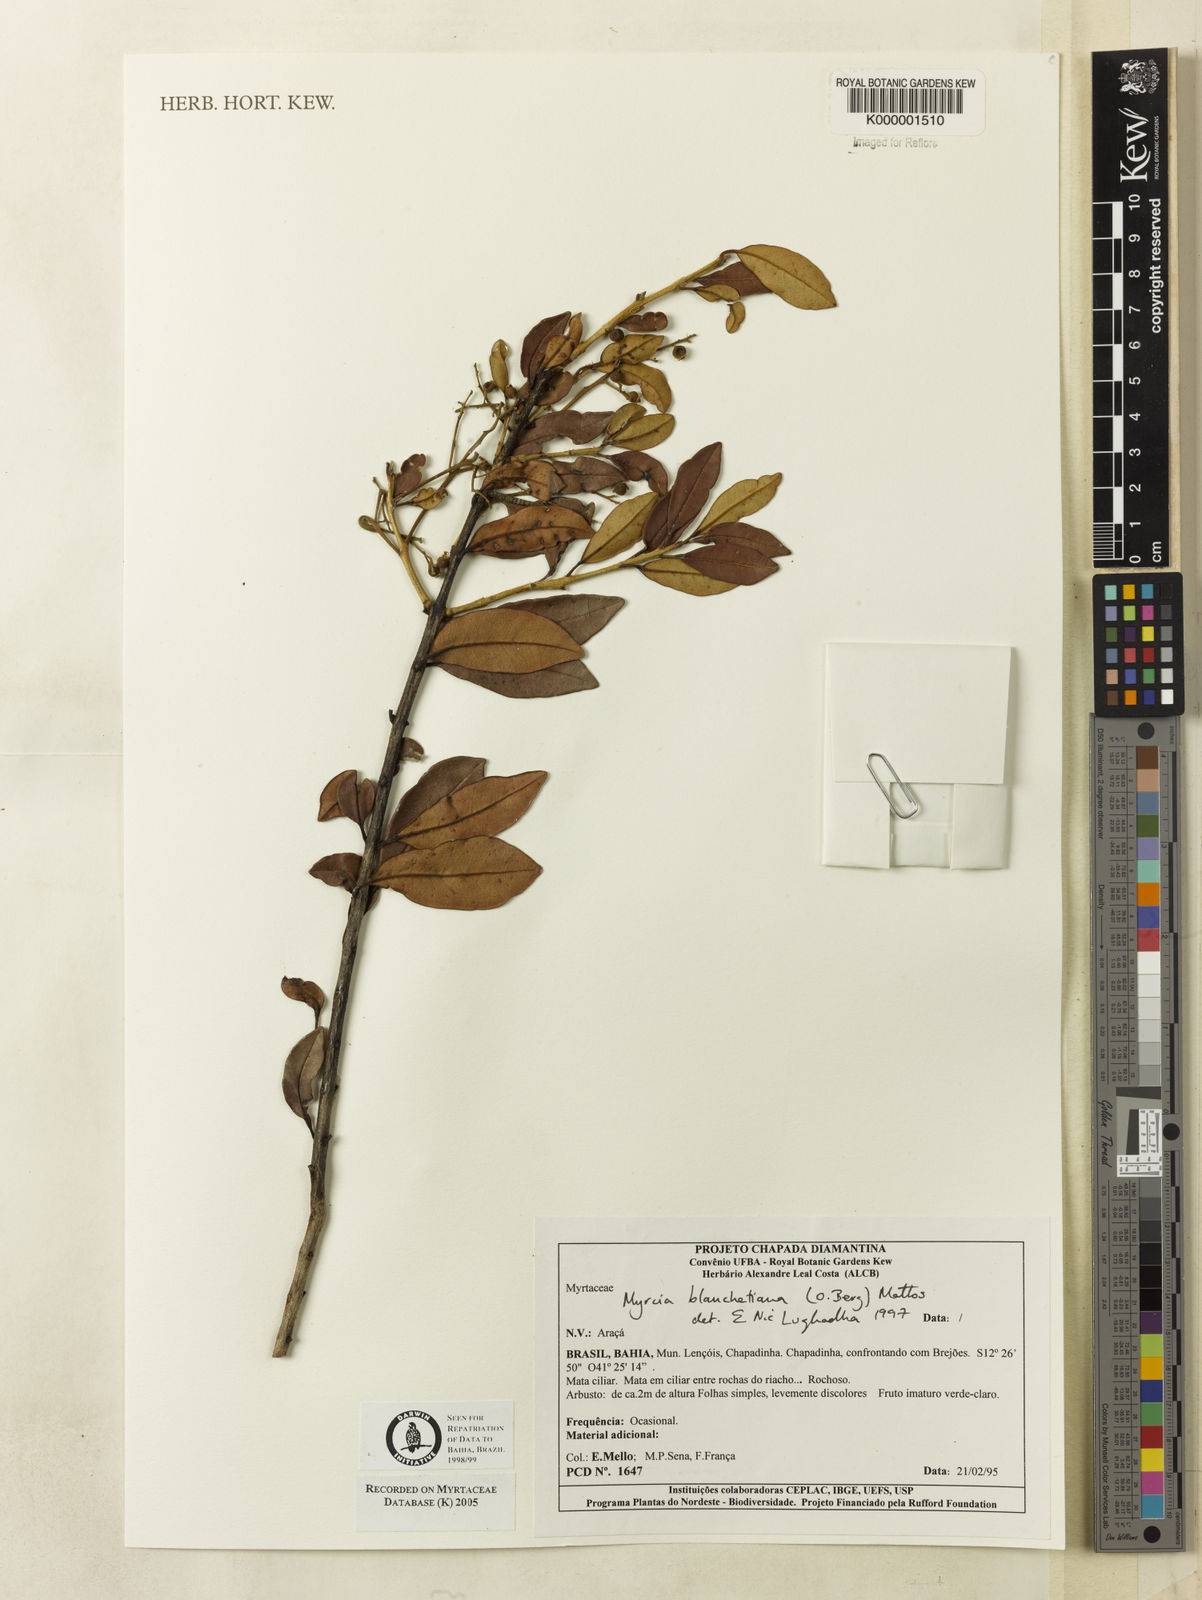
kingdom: Plantae
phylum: Tracheophyta
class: Magnoliopsida
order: Myrtales
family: Myrtaceae
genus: Myrcia
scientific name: Myrcia blanchetiana
